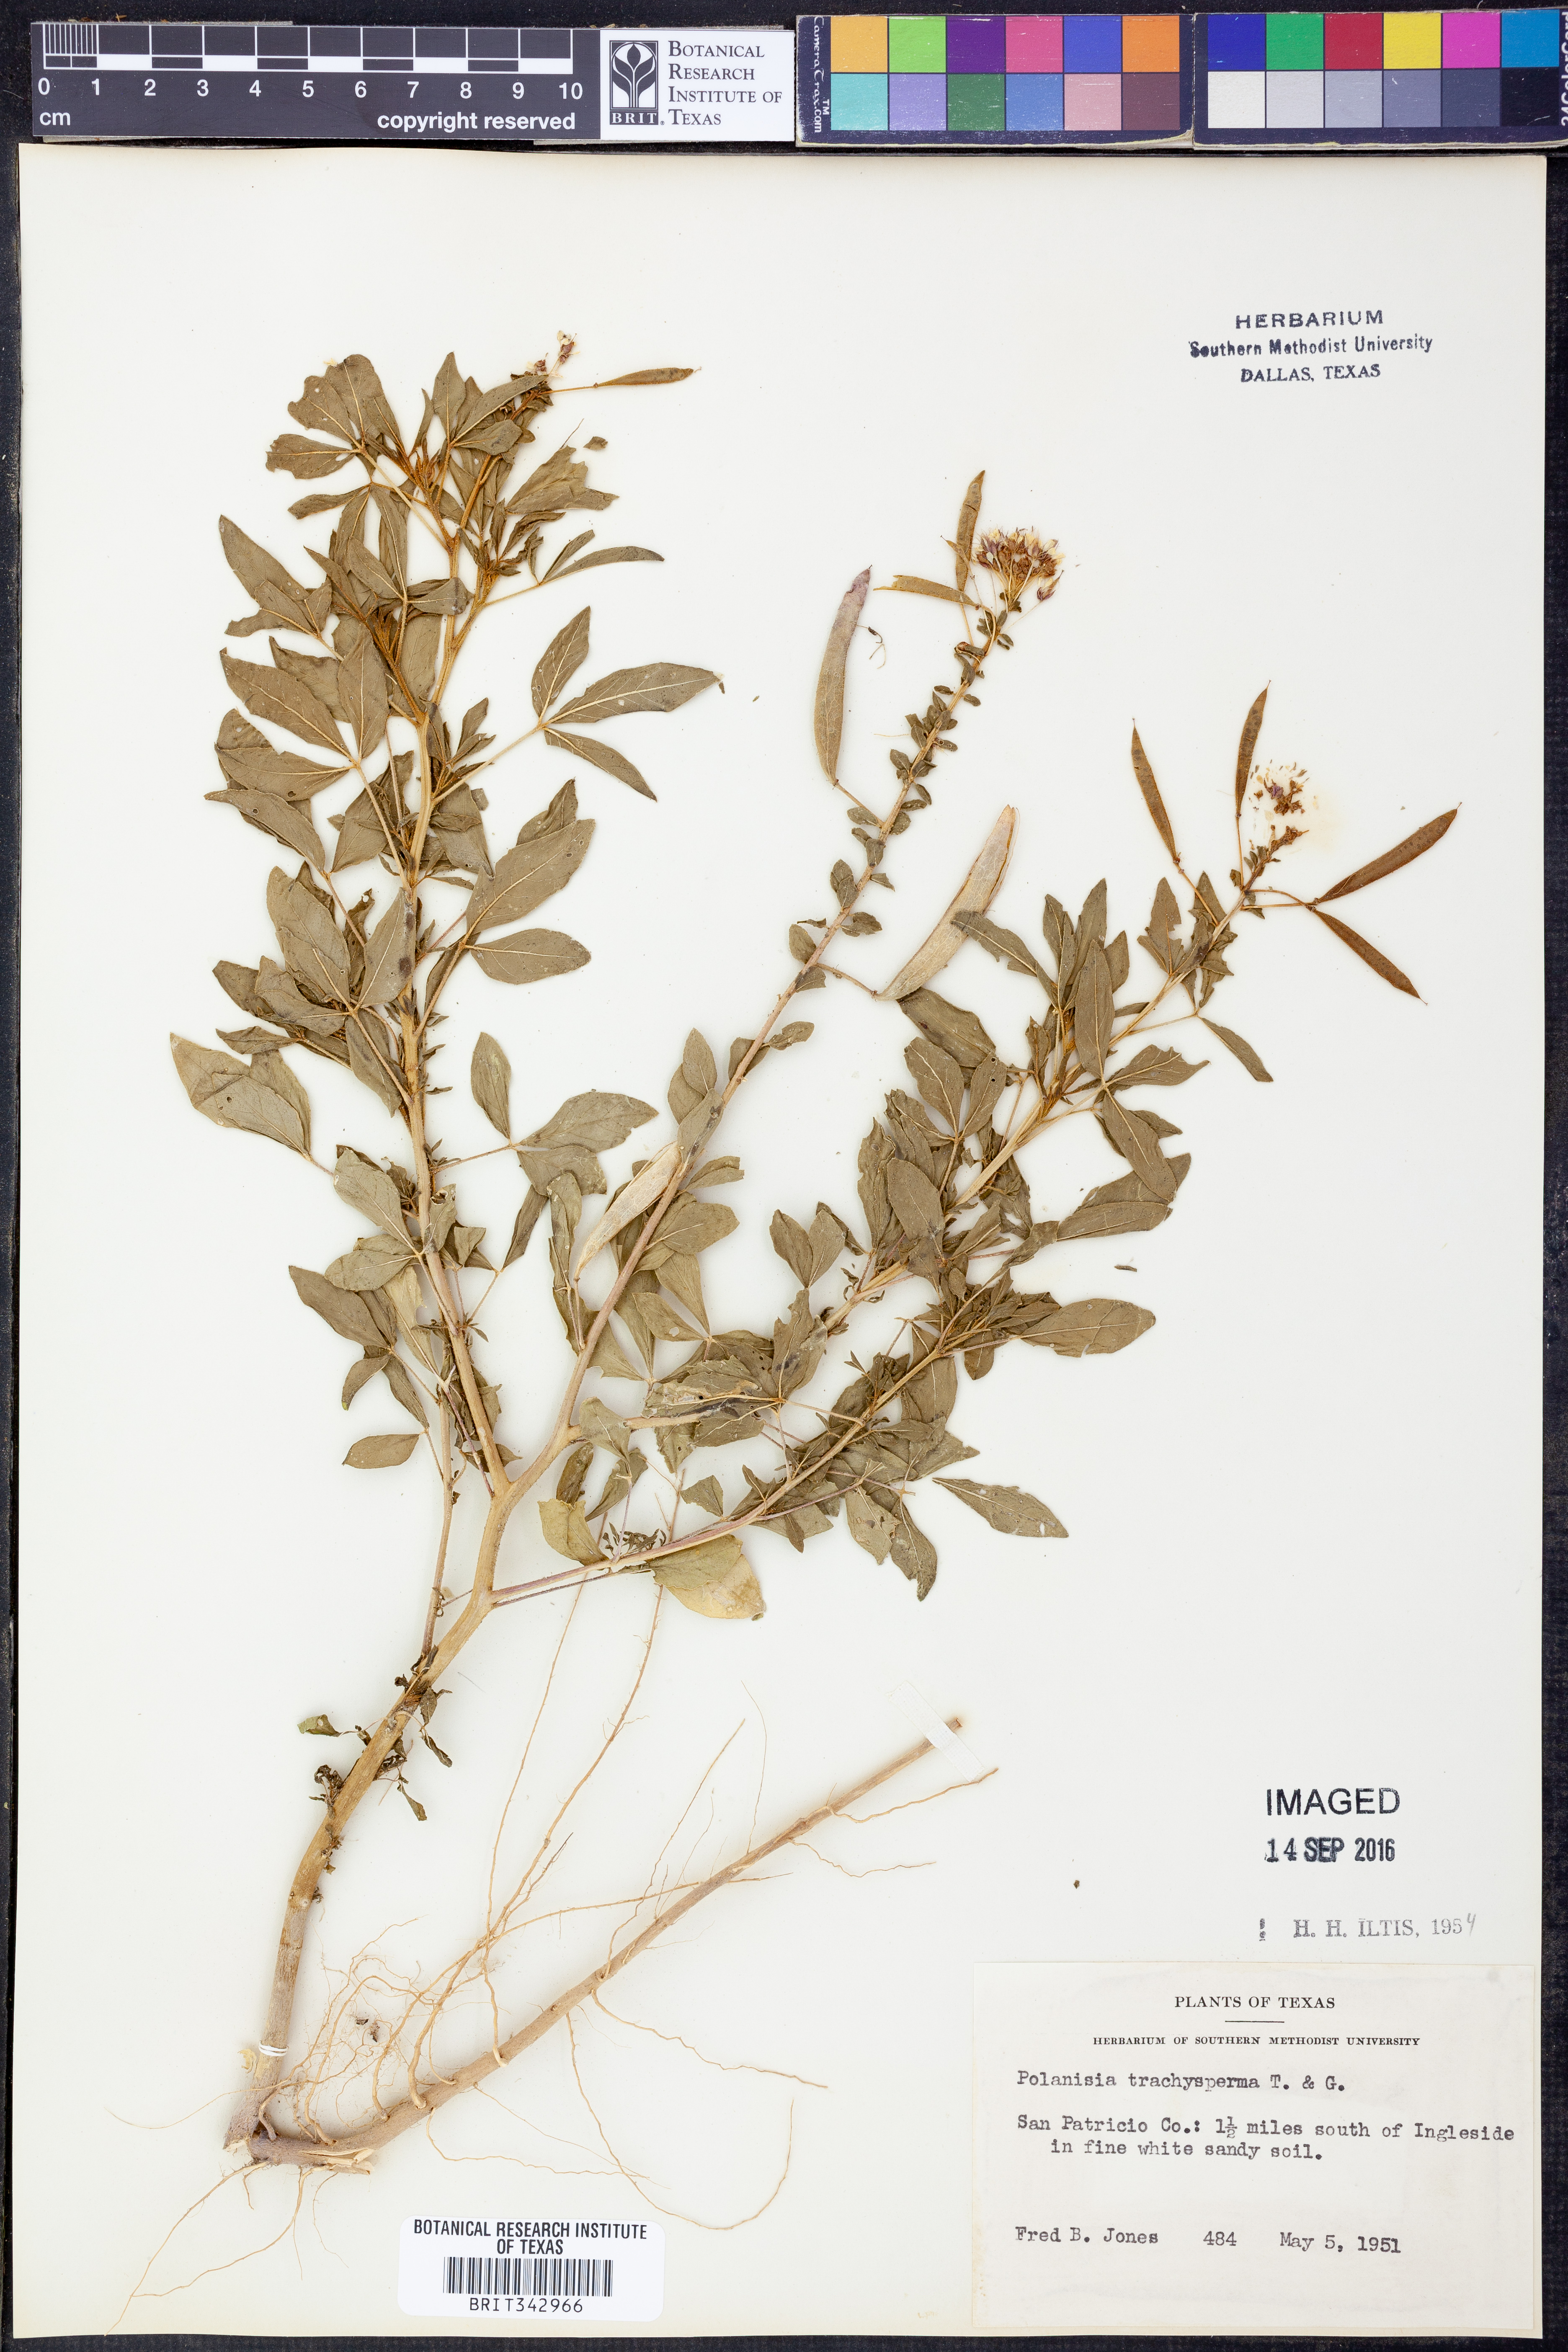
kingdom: Plantae
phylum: Tracheophyta
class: Magnoliopsida
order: Brassicales
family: Cleomaceae
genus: Polanisia
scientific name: Polanisia trachysperma
